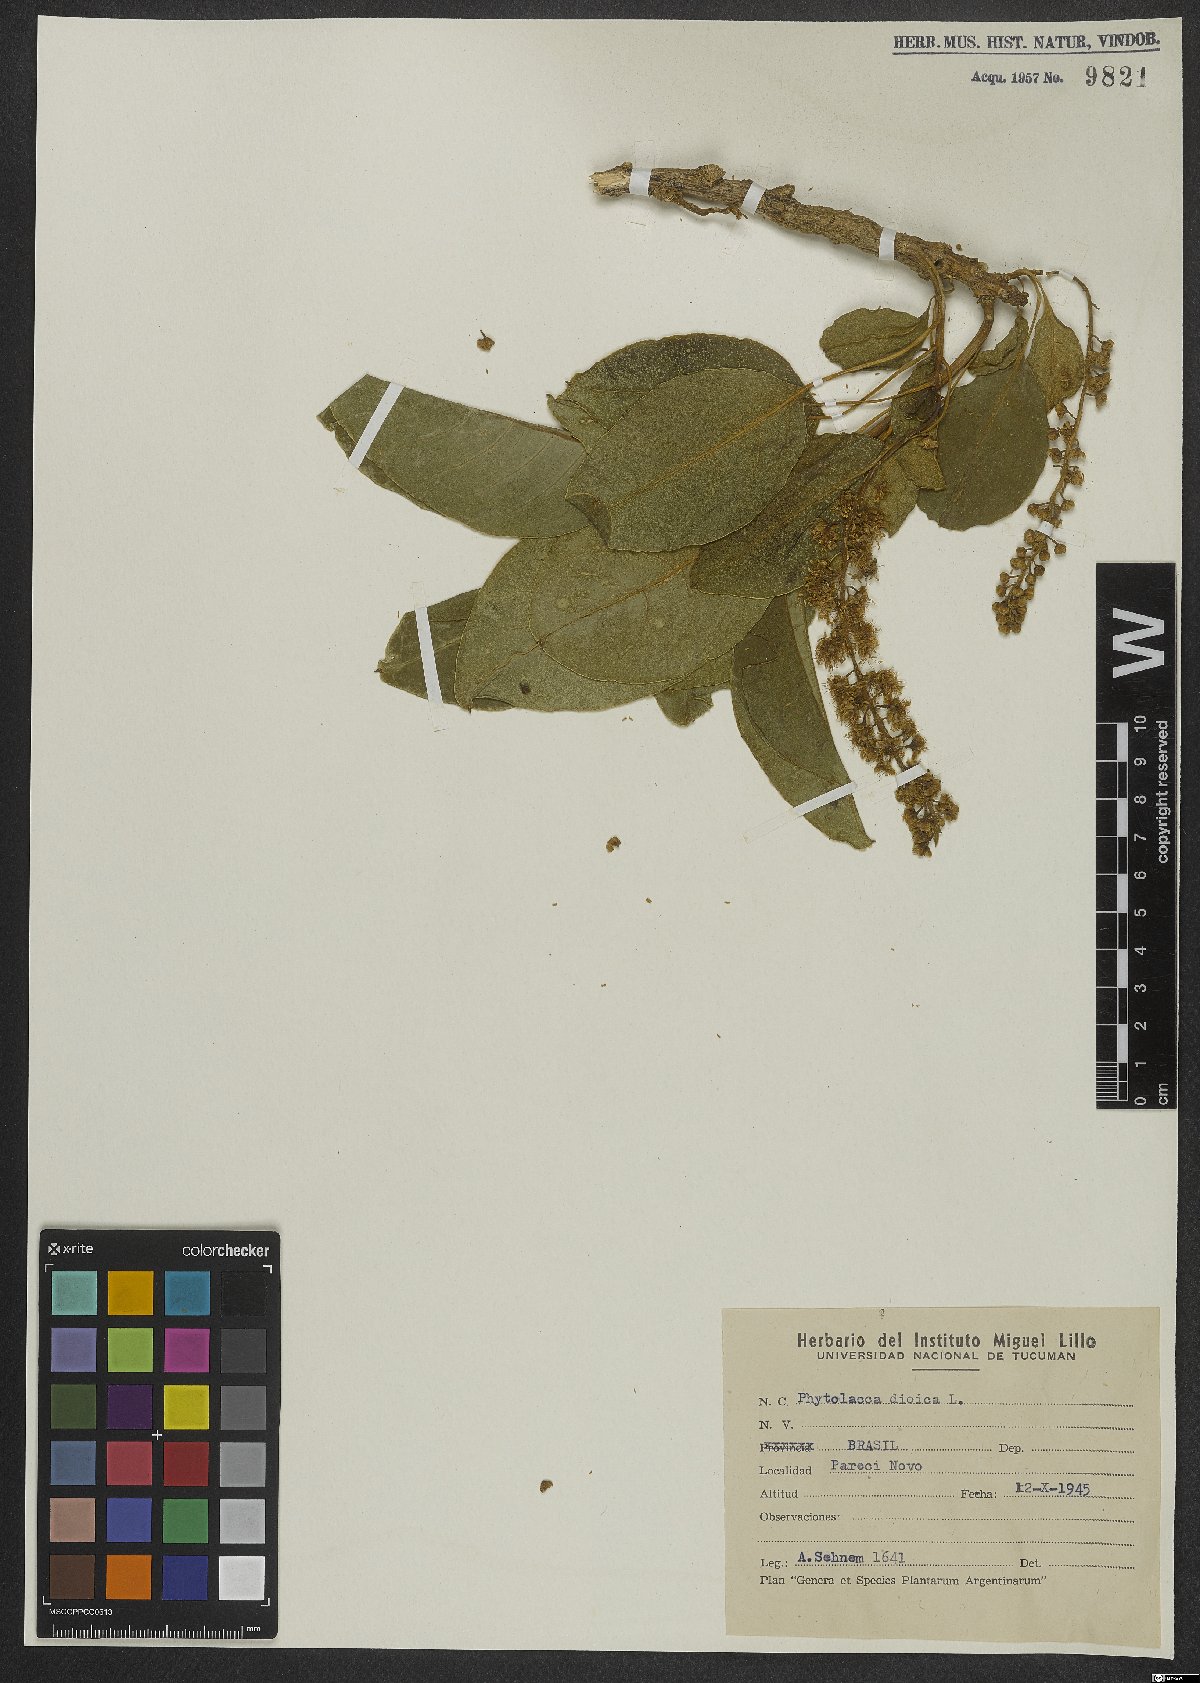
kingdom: Plantae
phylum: Tracheophyta
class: Magnoliopsida
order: Caryophyllales
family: Phytolaccaceae
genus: Phytolacca
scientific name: Phytolacca dioica
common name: Pokeweed
